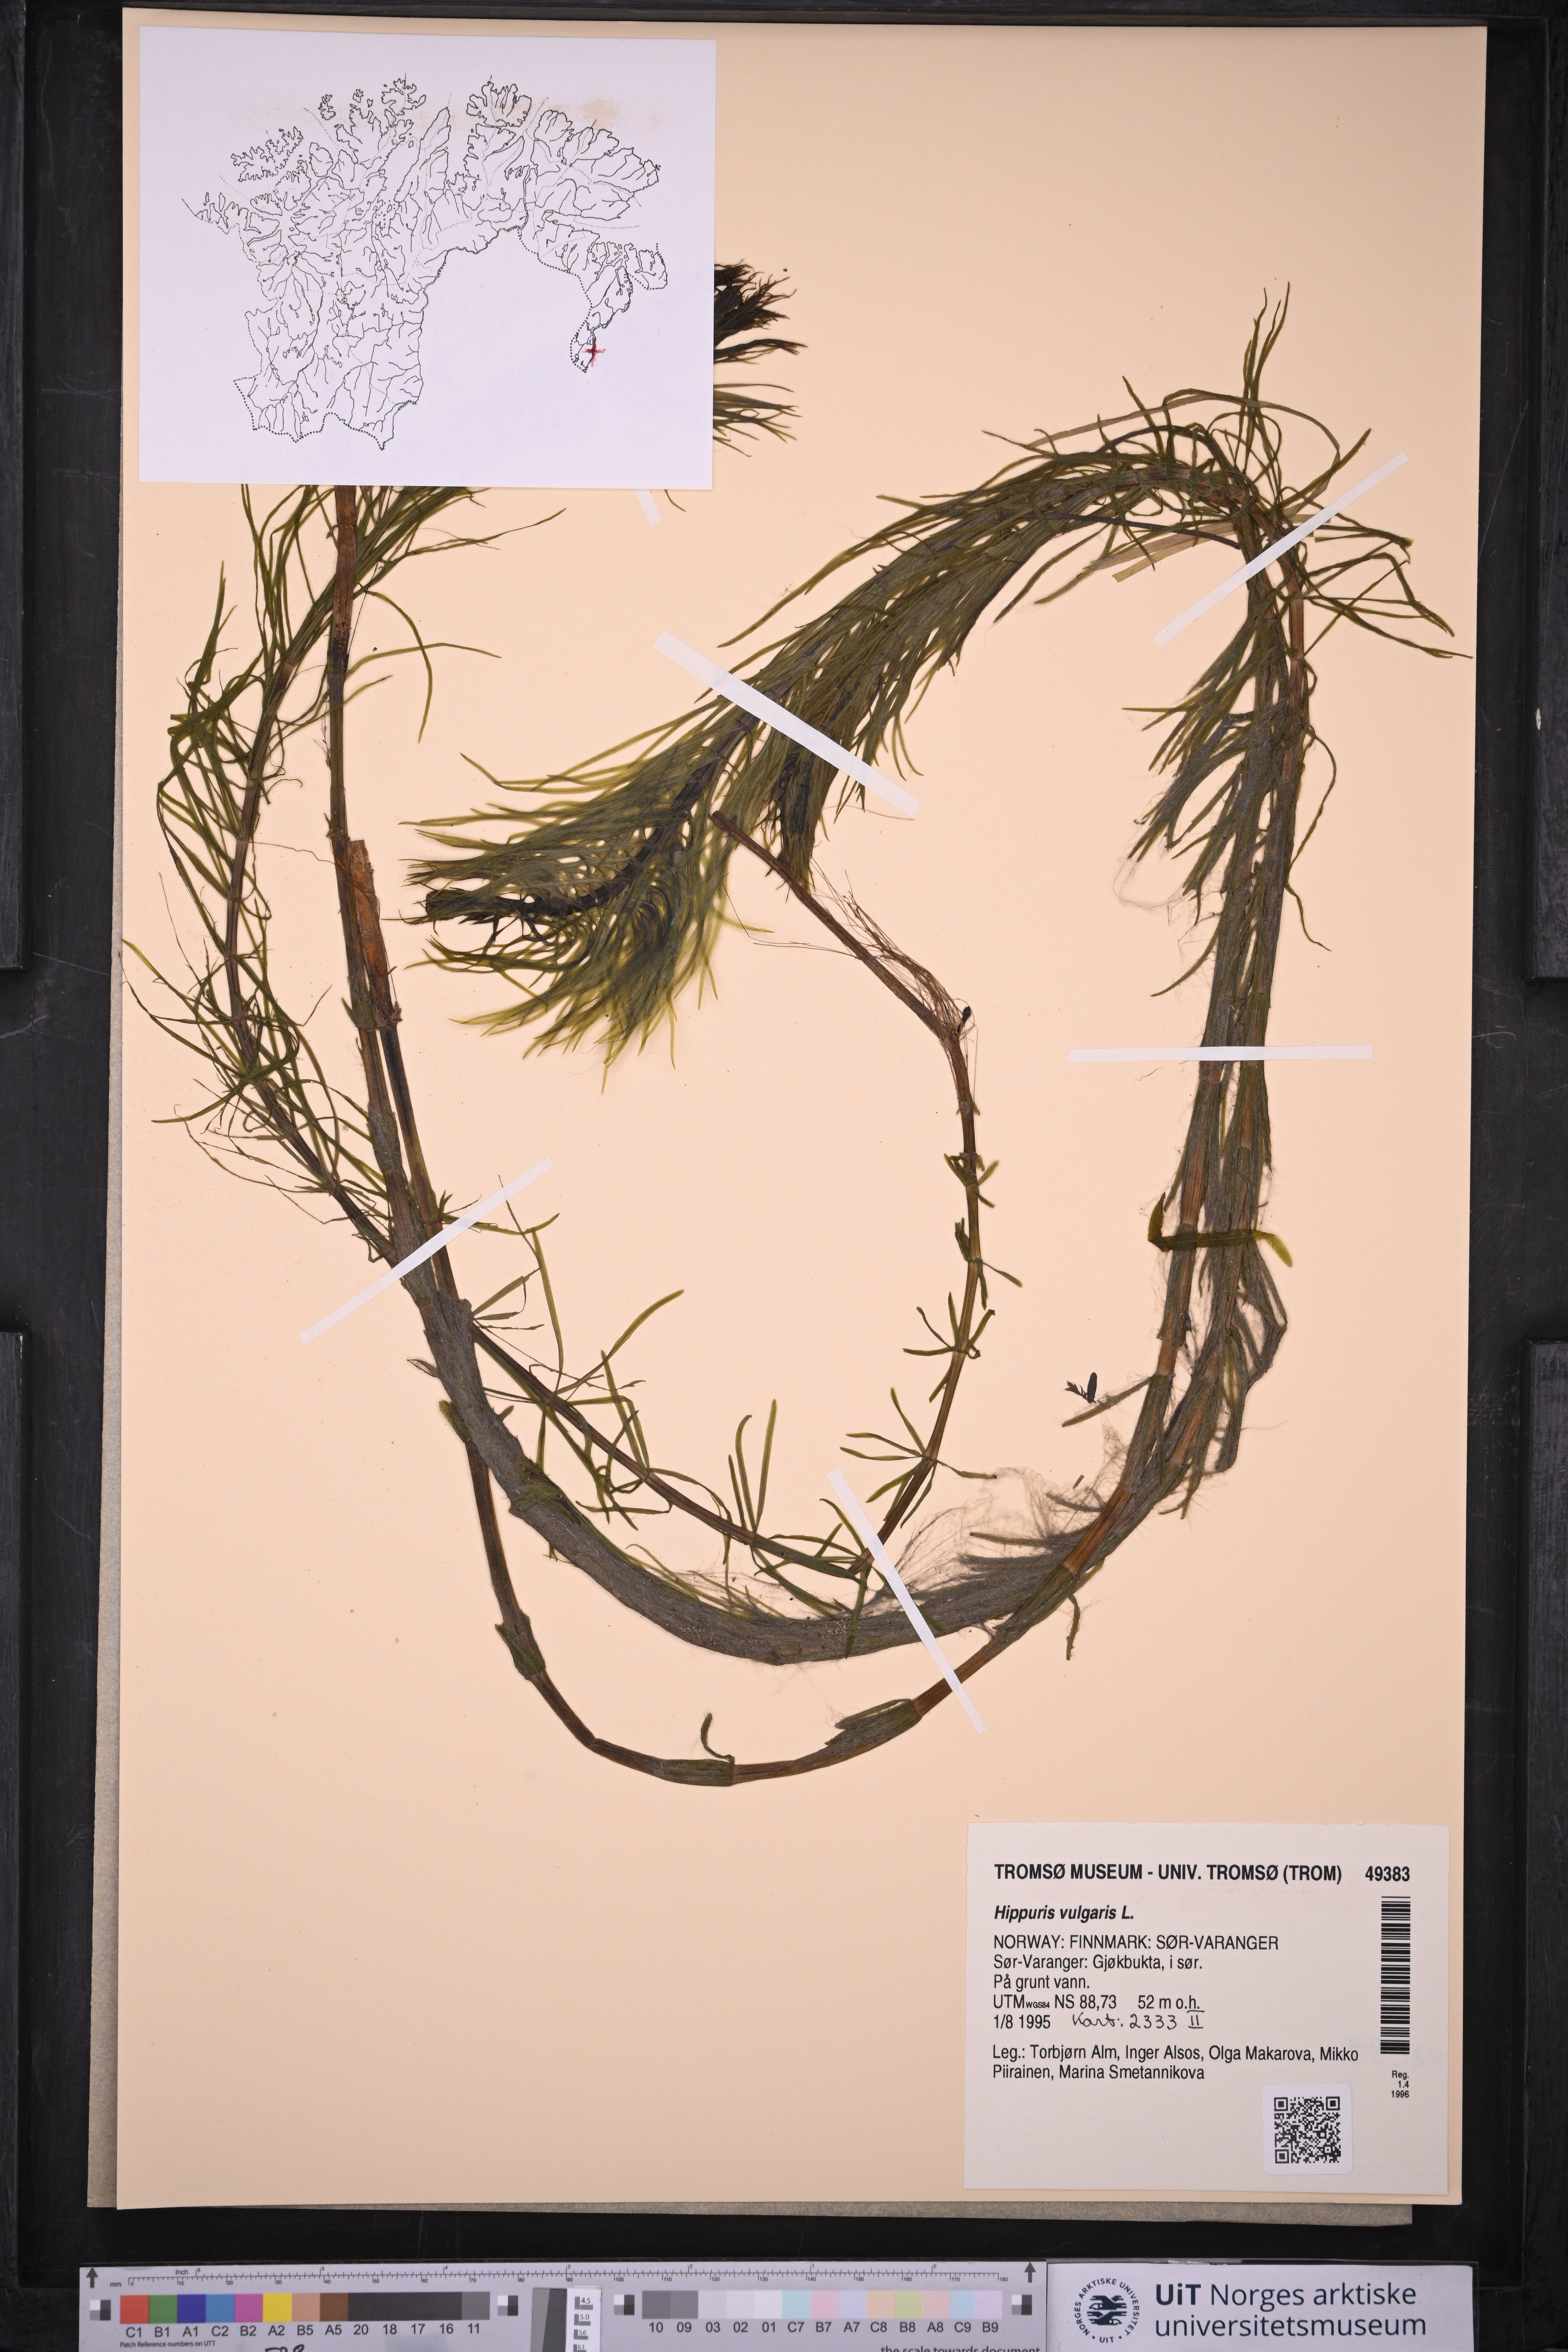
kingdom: Plantae
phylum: Tracheophyta
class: Magnoliopsida
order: Lamiales
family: Plantaginaceae
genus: Hippuris
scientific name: Hippuris vulgaris
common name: Mare's-tail
